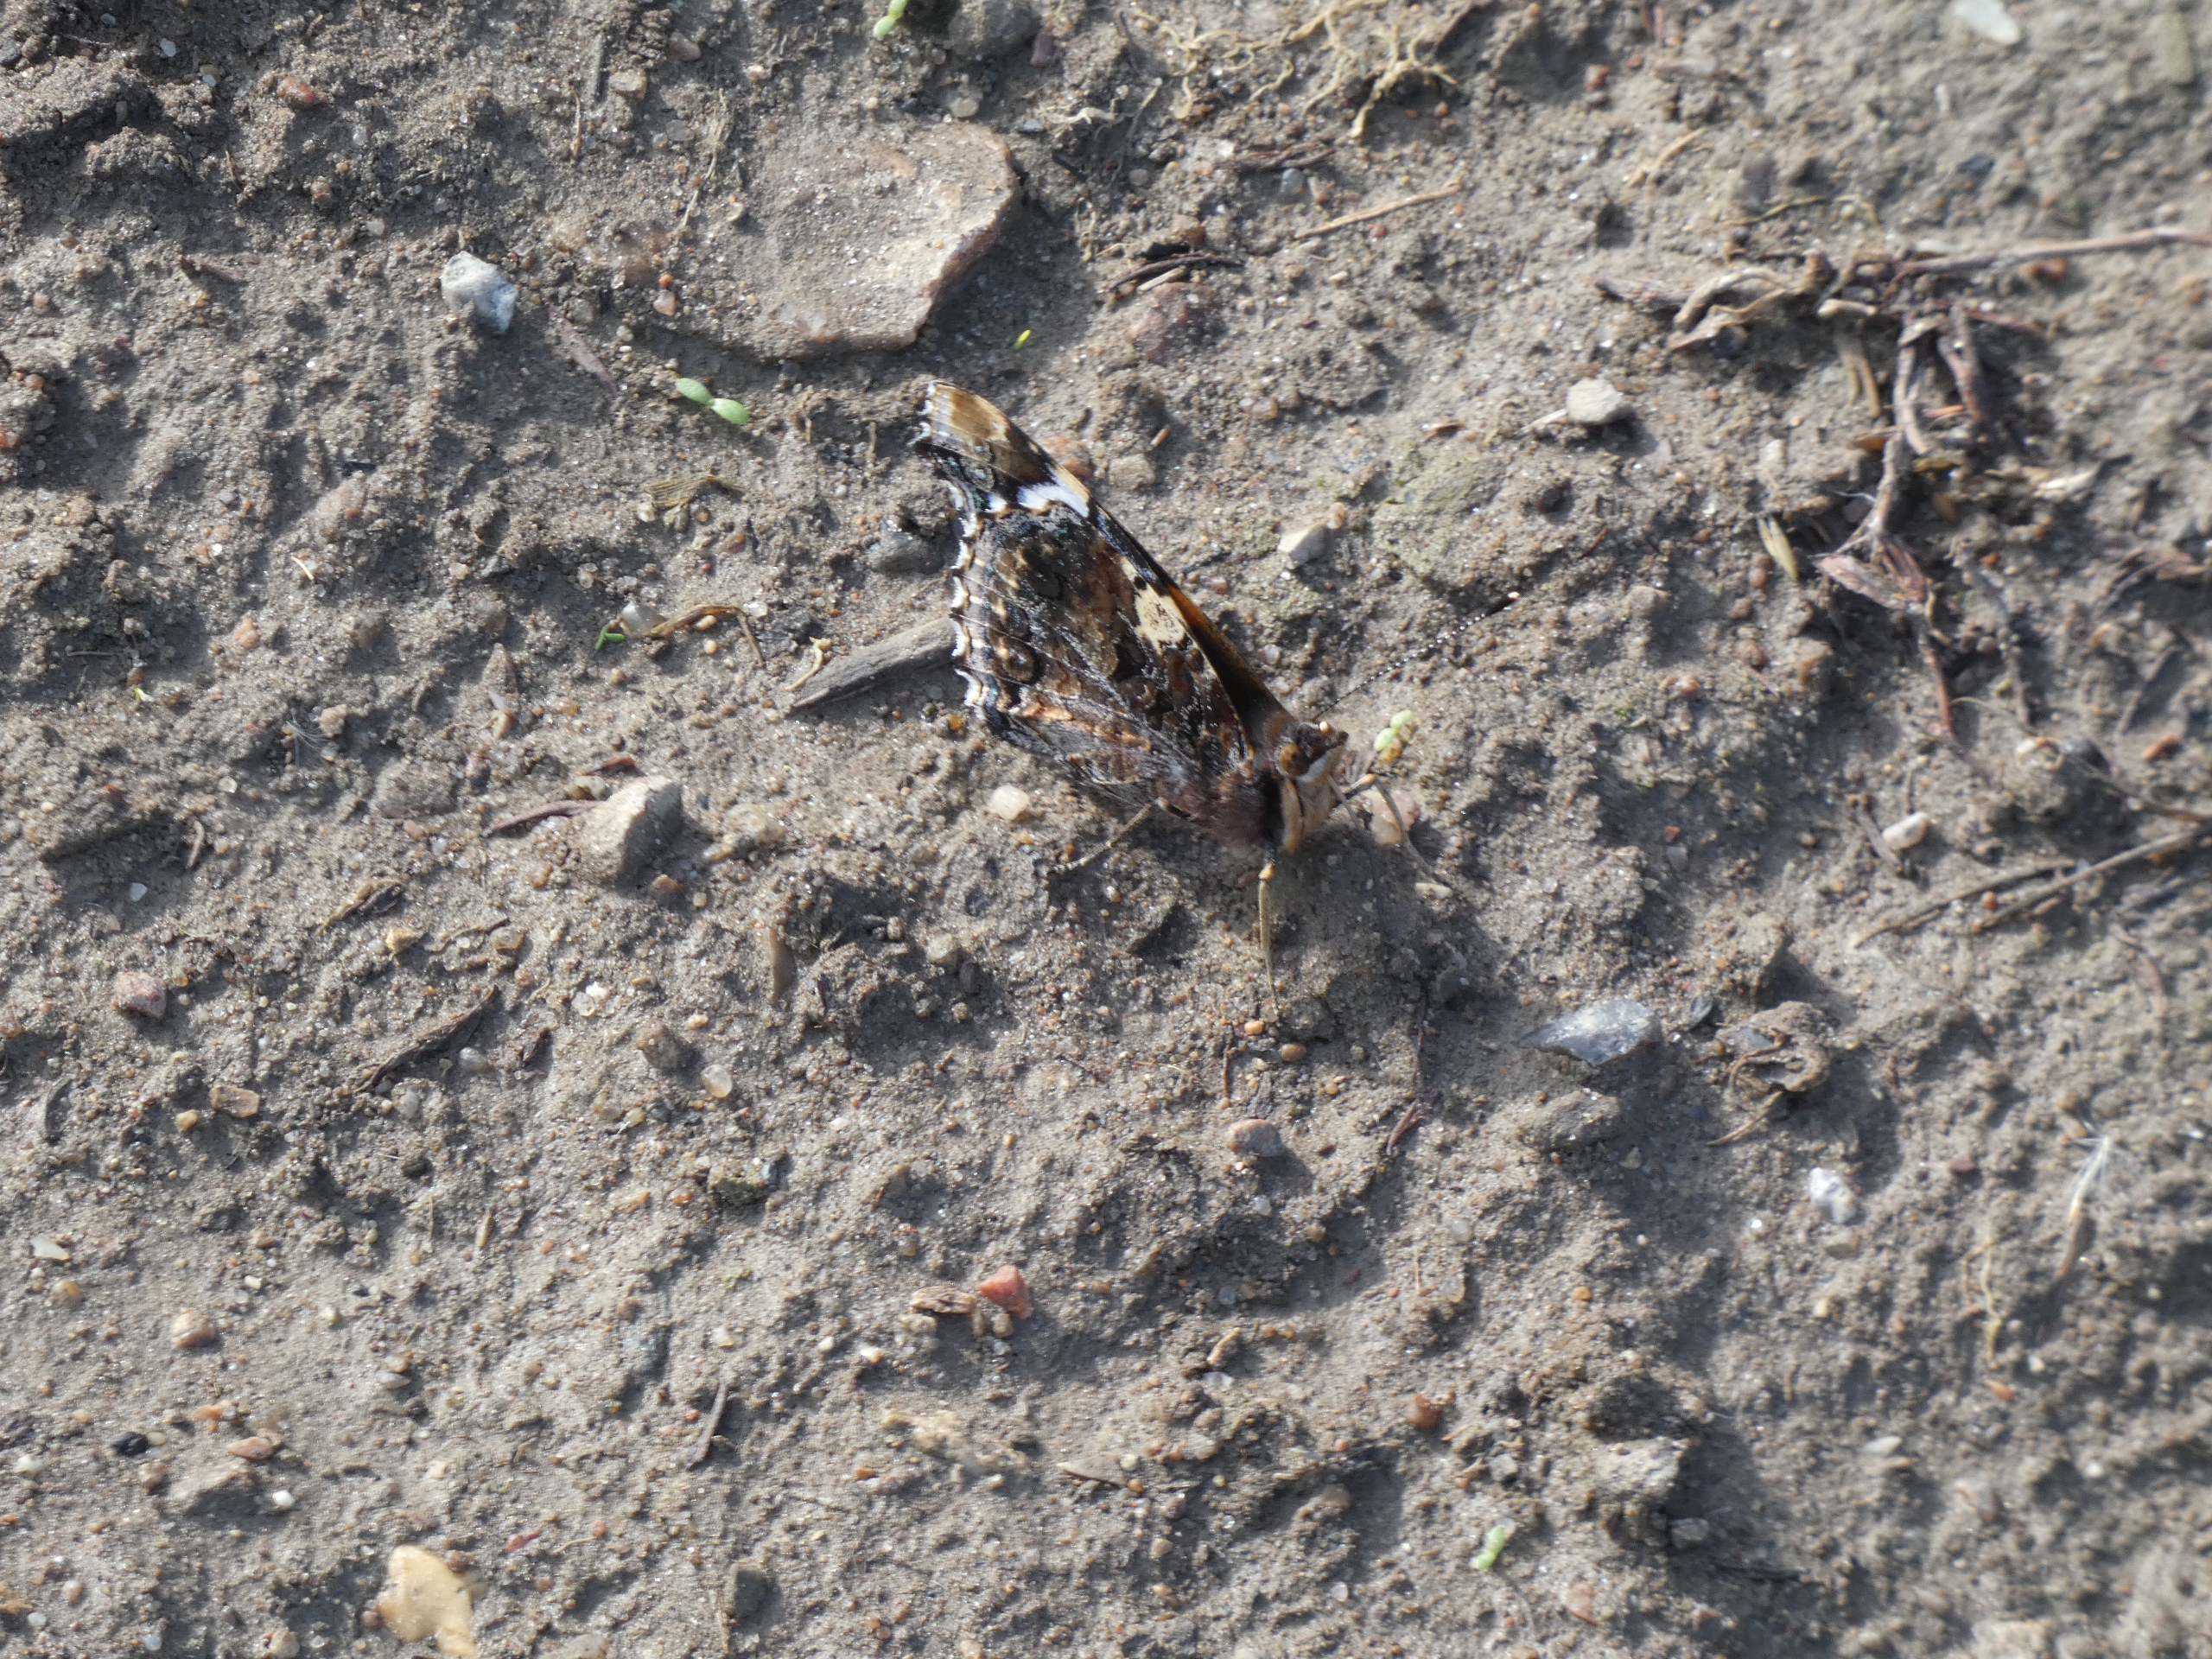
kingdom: Animalia
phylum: Arthropoda
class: Insecta
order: Lepidoptera
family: Nymphalidae
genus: Vanessa
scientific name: Vanessa atalanta
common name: Admiral
